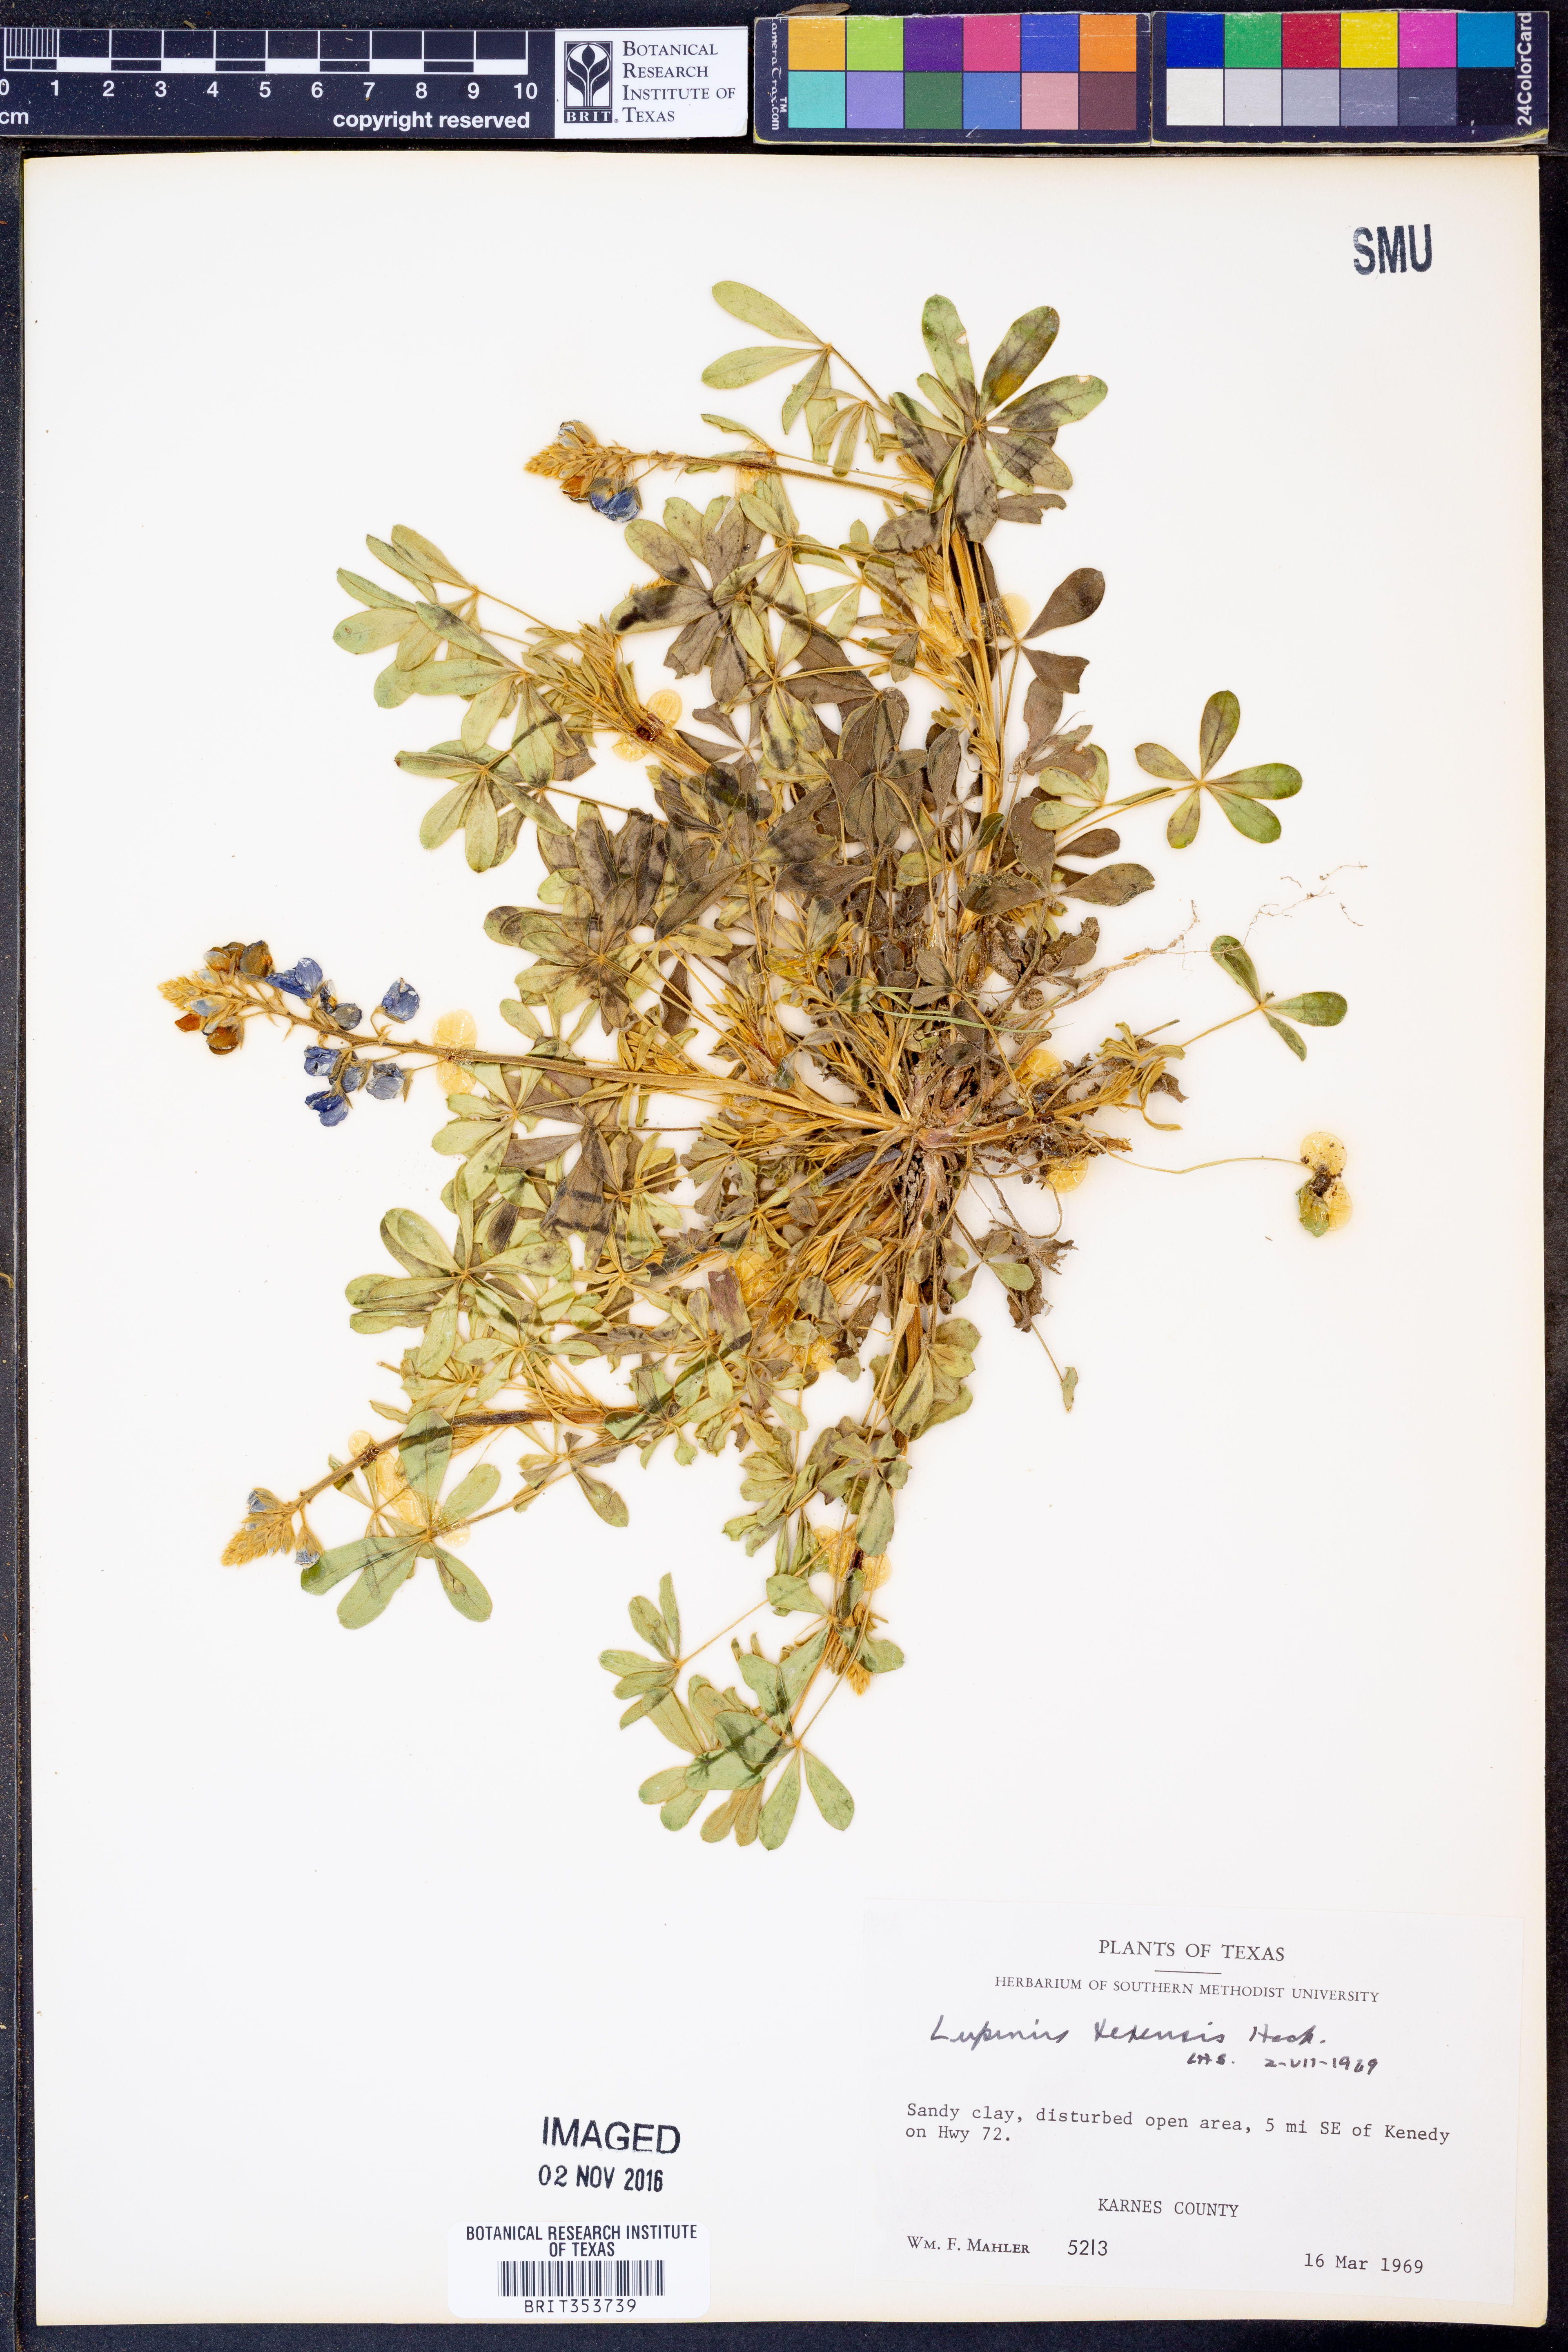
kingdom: Plantae
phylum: Tracheophyta
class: Magnoliopsida
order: Fabales
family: Fabaceae
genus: Lupinus
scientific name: Lupinus texensis
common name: Texas bluebonnet
